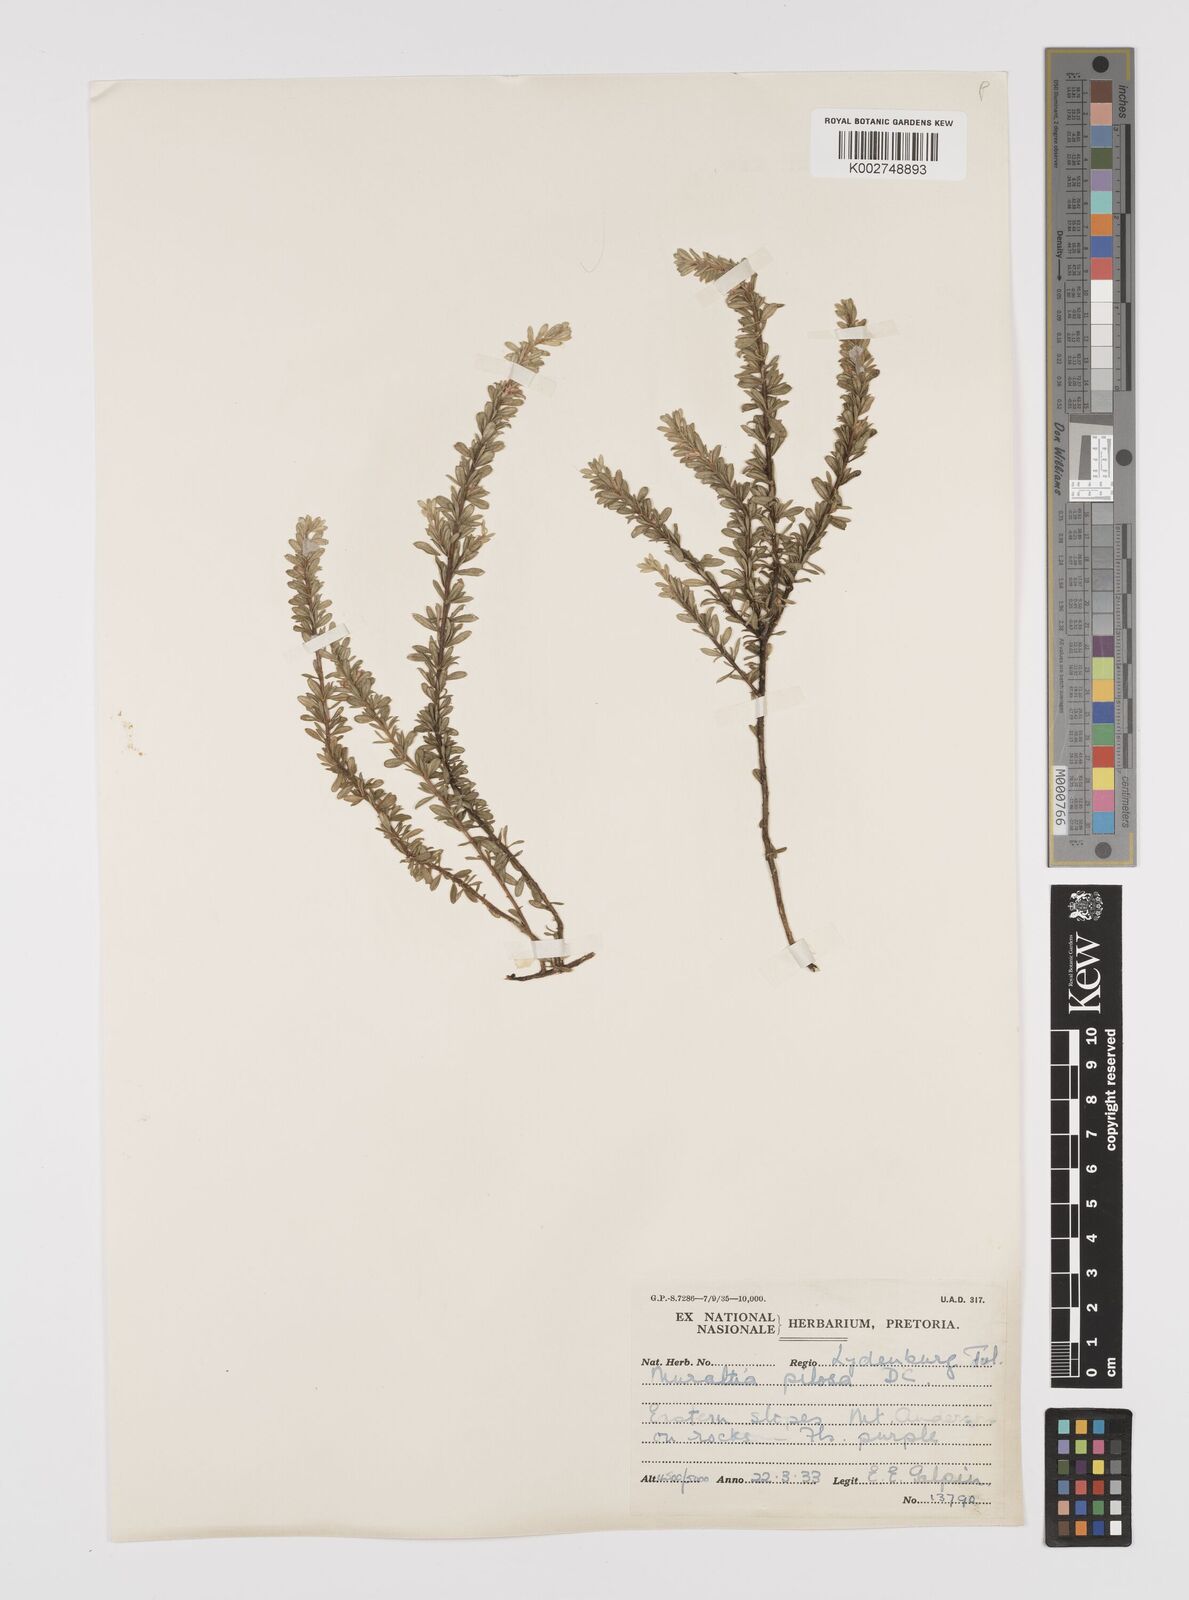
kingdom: Plantae
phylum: Tracheophyta
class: Magnoliopsida
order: Fabales
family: Polygalaceae
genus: Muraltia
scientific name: Muraltia saxicola
